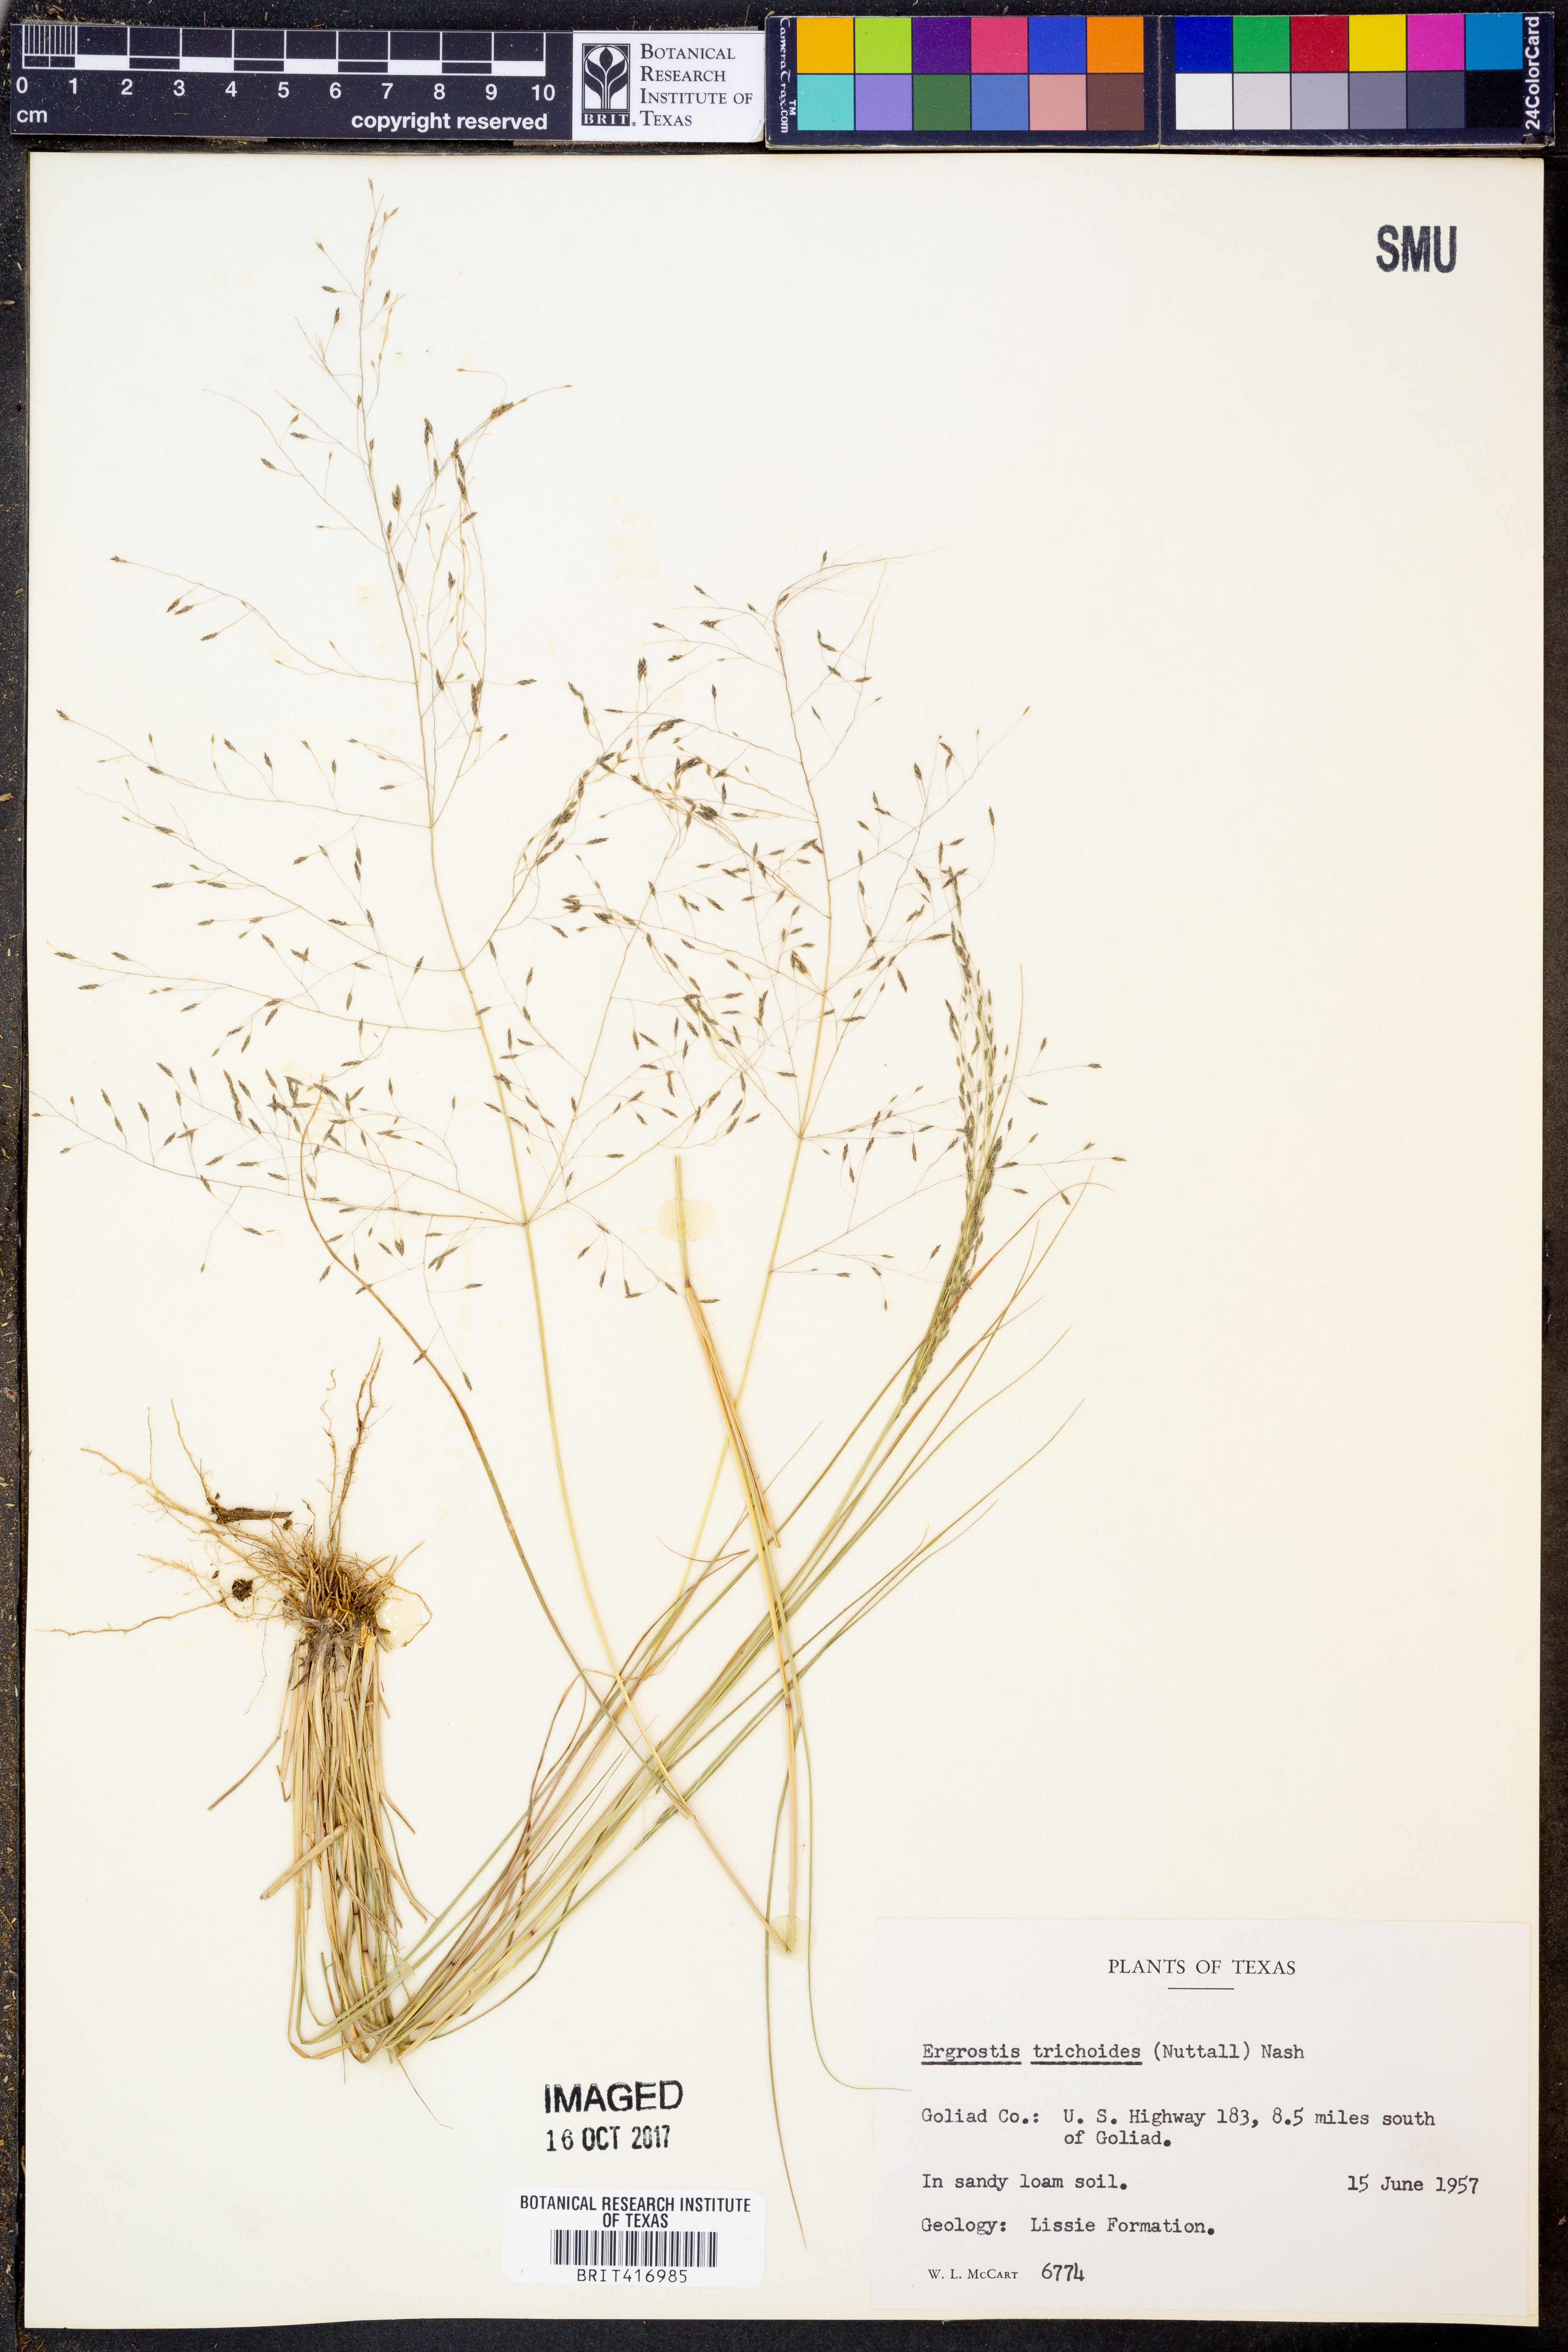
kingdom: Plantae
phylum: Tracheophyta
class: Liliopsida
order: Poales
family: Poaceae
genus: Eragrostis
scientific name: Eragrostis trichodes
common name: Sand love grass
